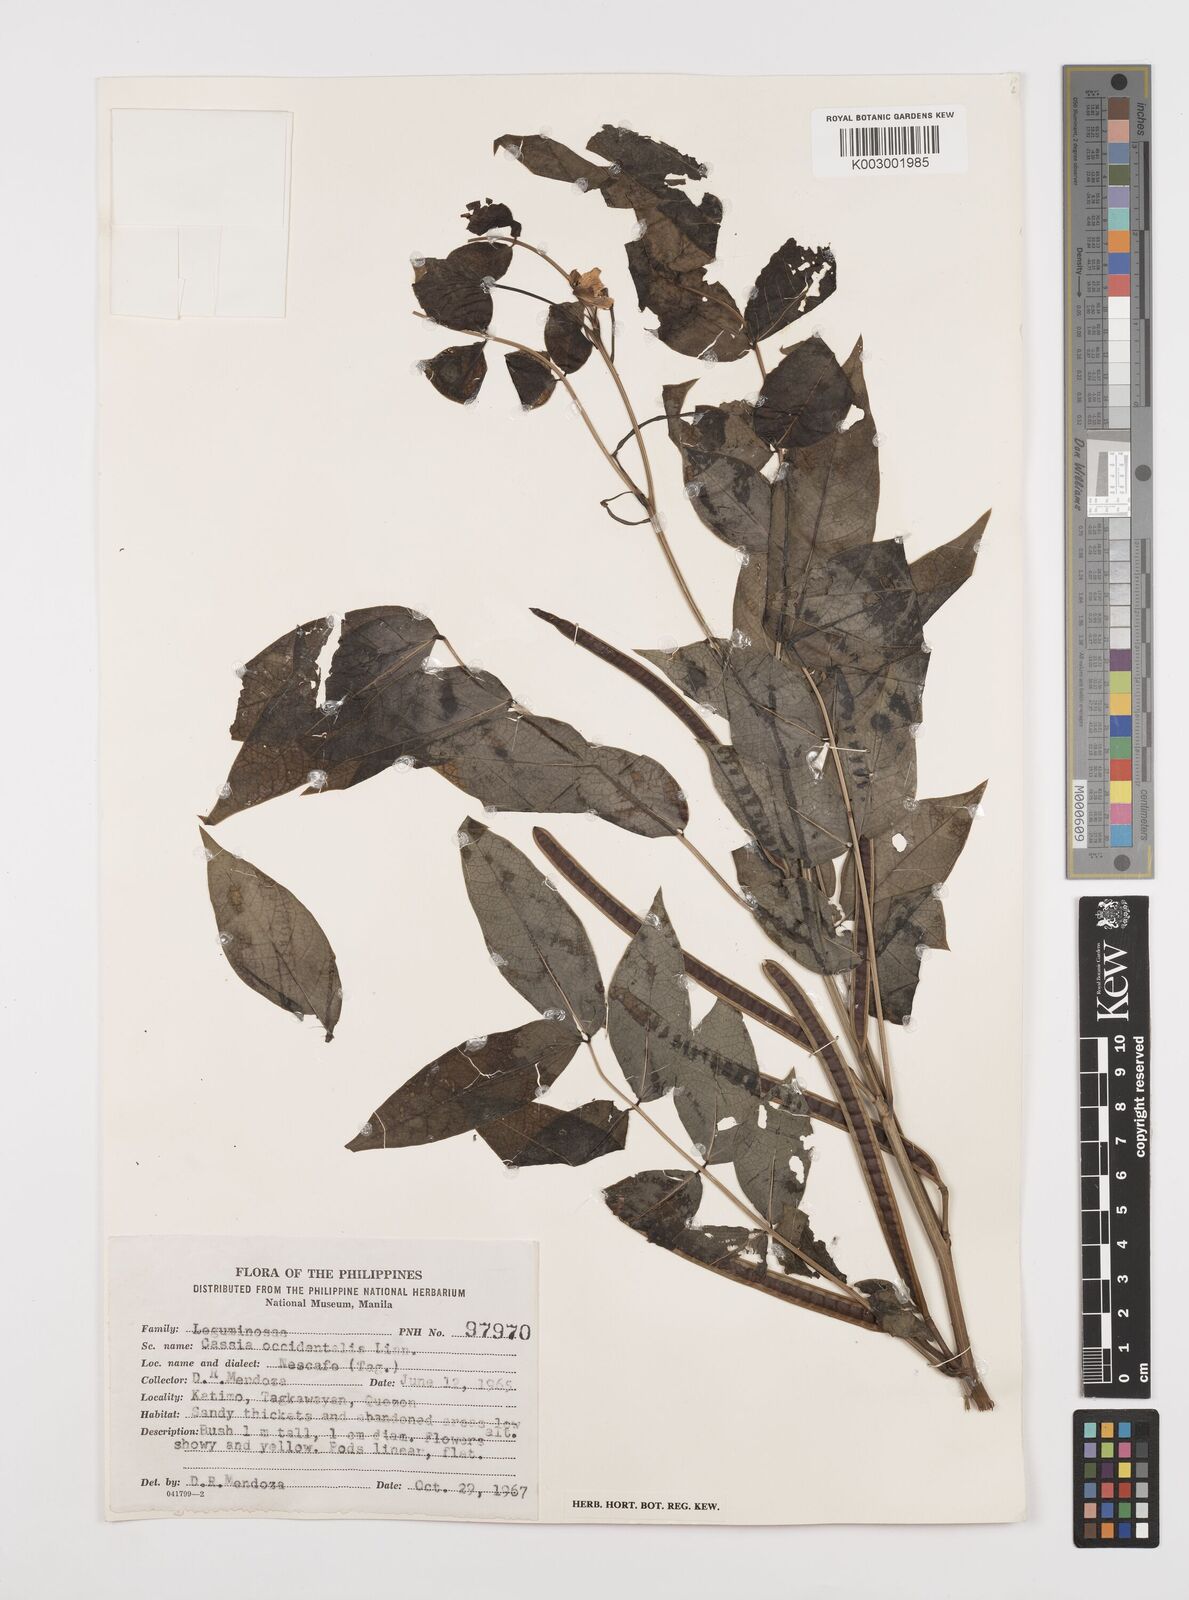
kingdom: Plantae
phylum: Tracheophyta
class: Magnoliopsida
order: Fabales
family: Fabaceae
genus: Senna
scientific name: Senna occidentalis
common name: Septicweed
